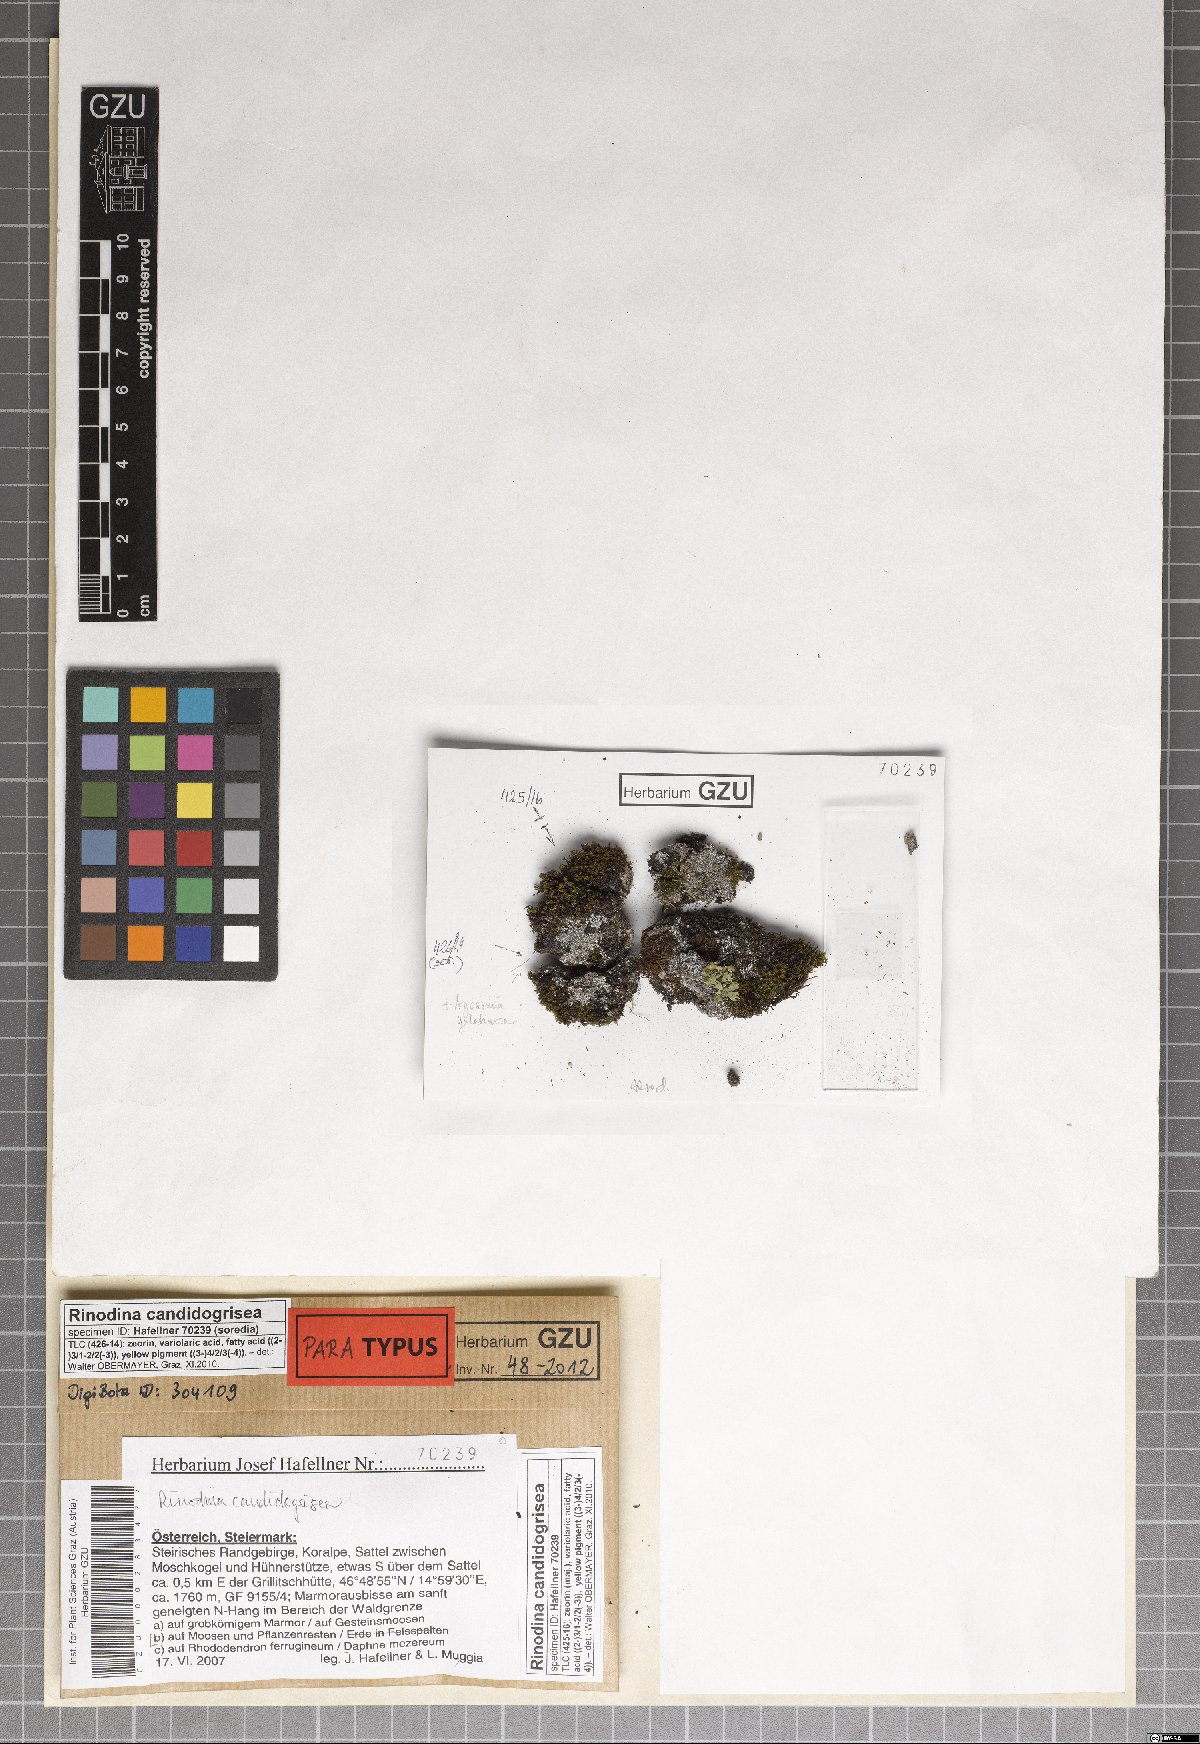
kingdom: Fungi
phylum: Ascomycota
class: Lecanoromycetes
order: Caliciales
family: Physciaceae
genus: Kudratovia
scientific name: Kudratovia candidogrisea
